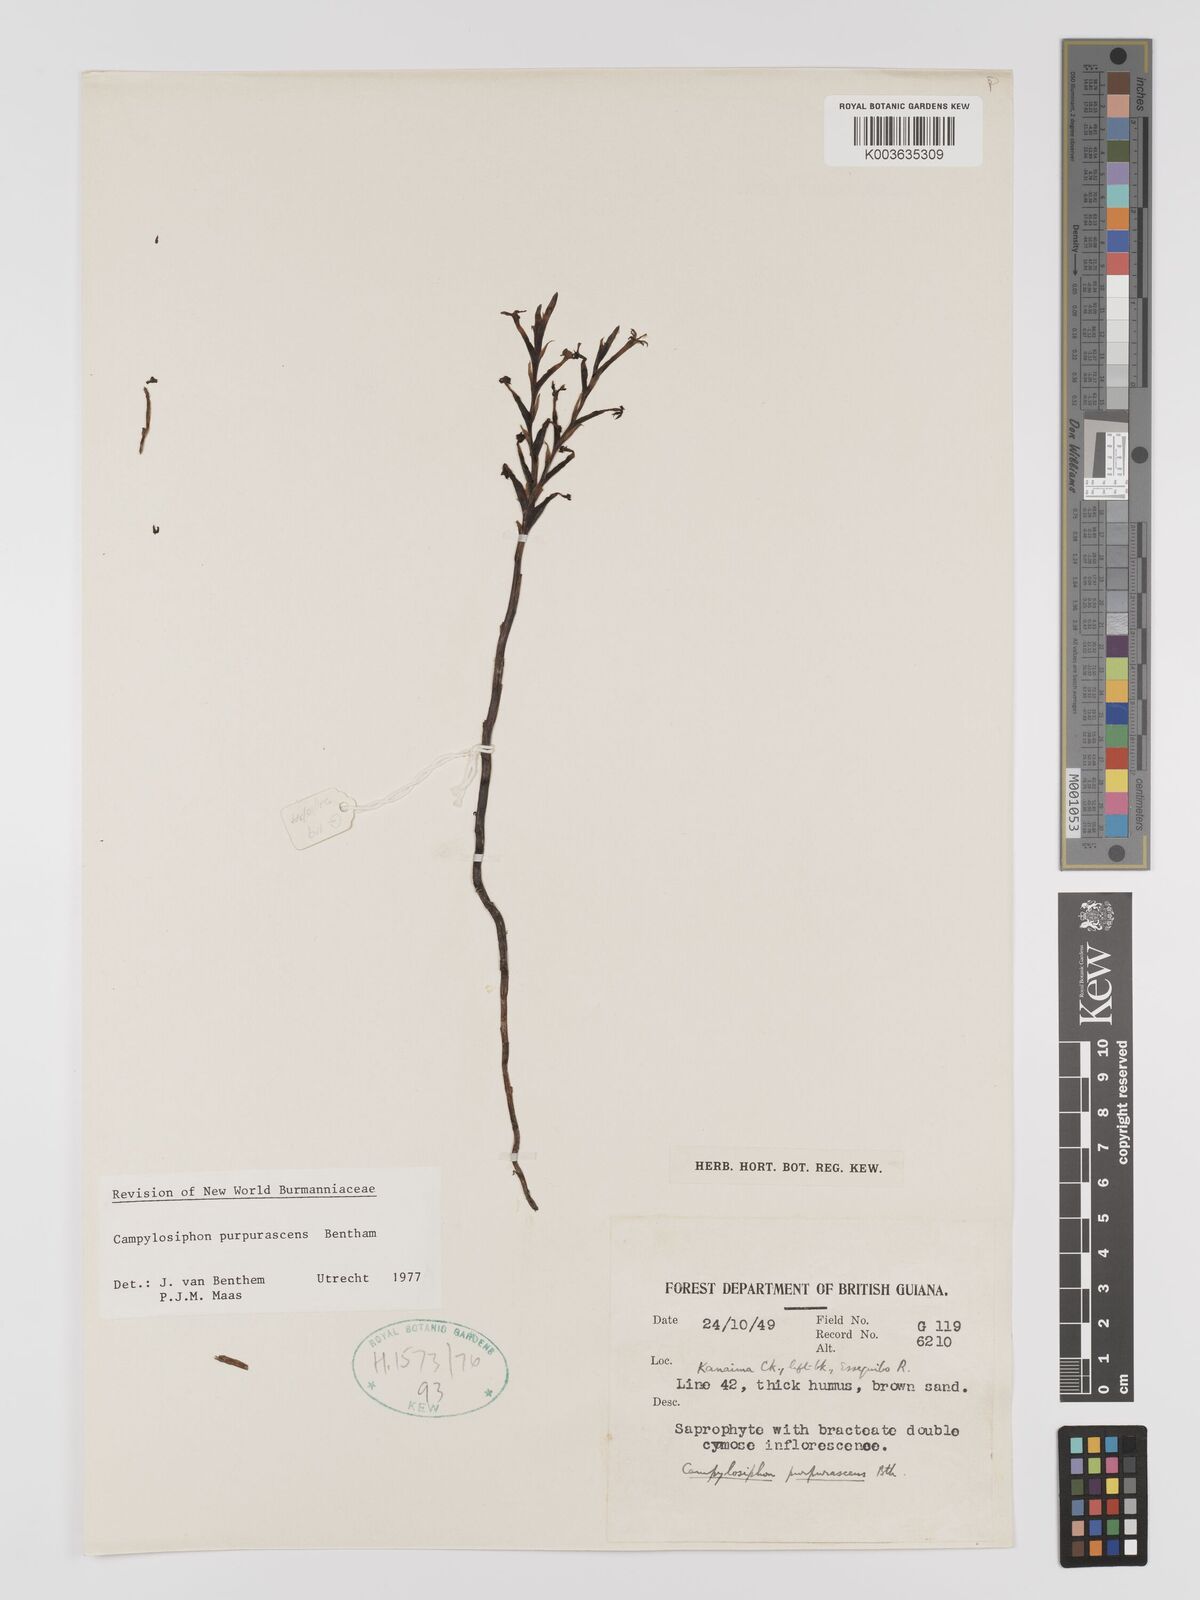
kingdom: Plantae
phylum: Tracheophyta
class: Liliopsida
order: Dioscoreales
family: Burmanniaceae
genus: Campylosiphon
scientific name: Campylosiphon purpurascens
